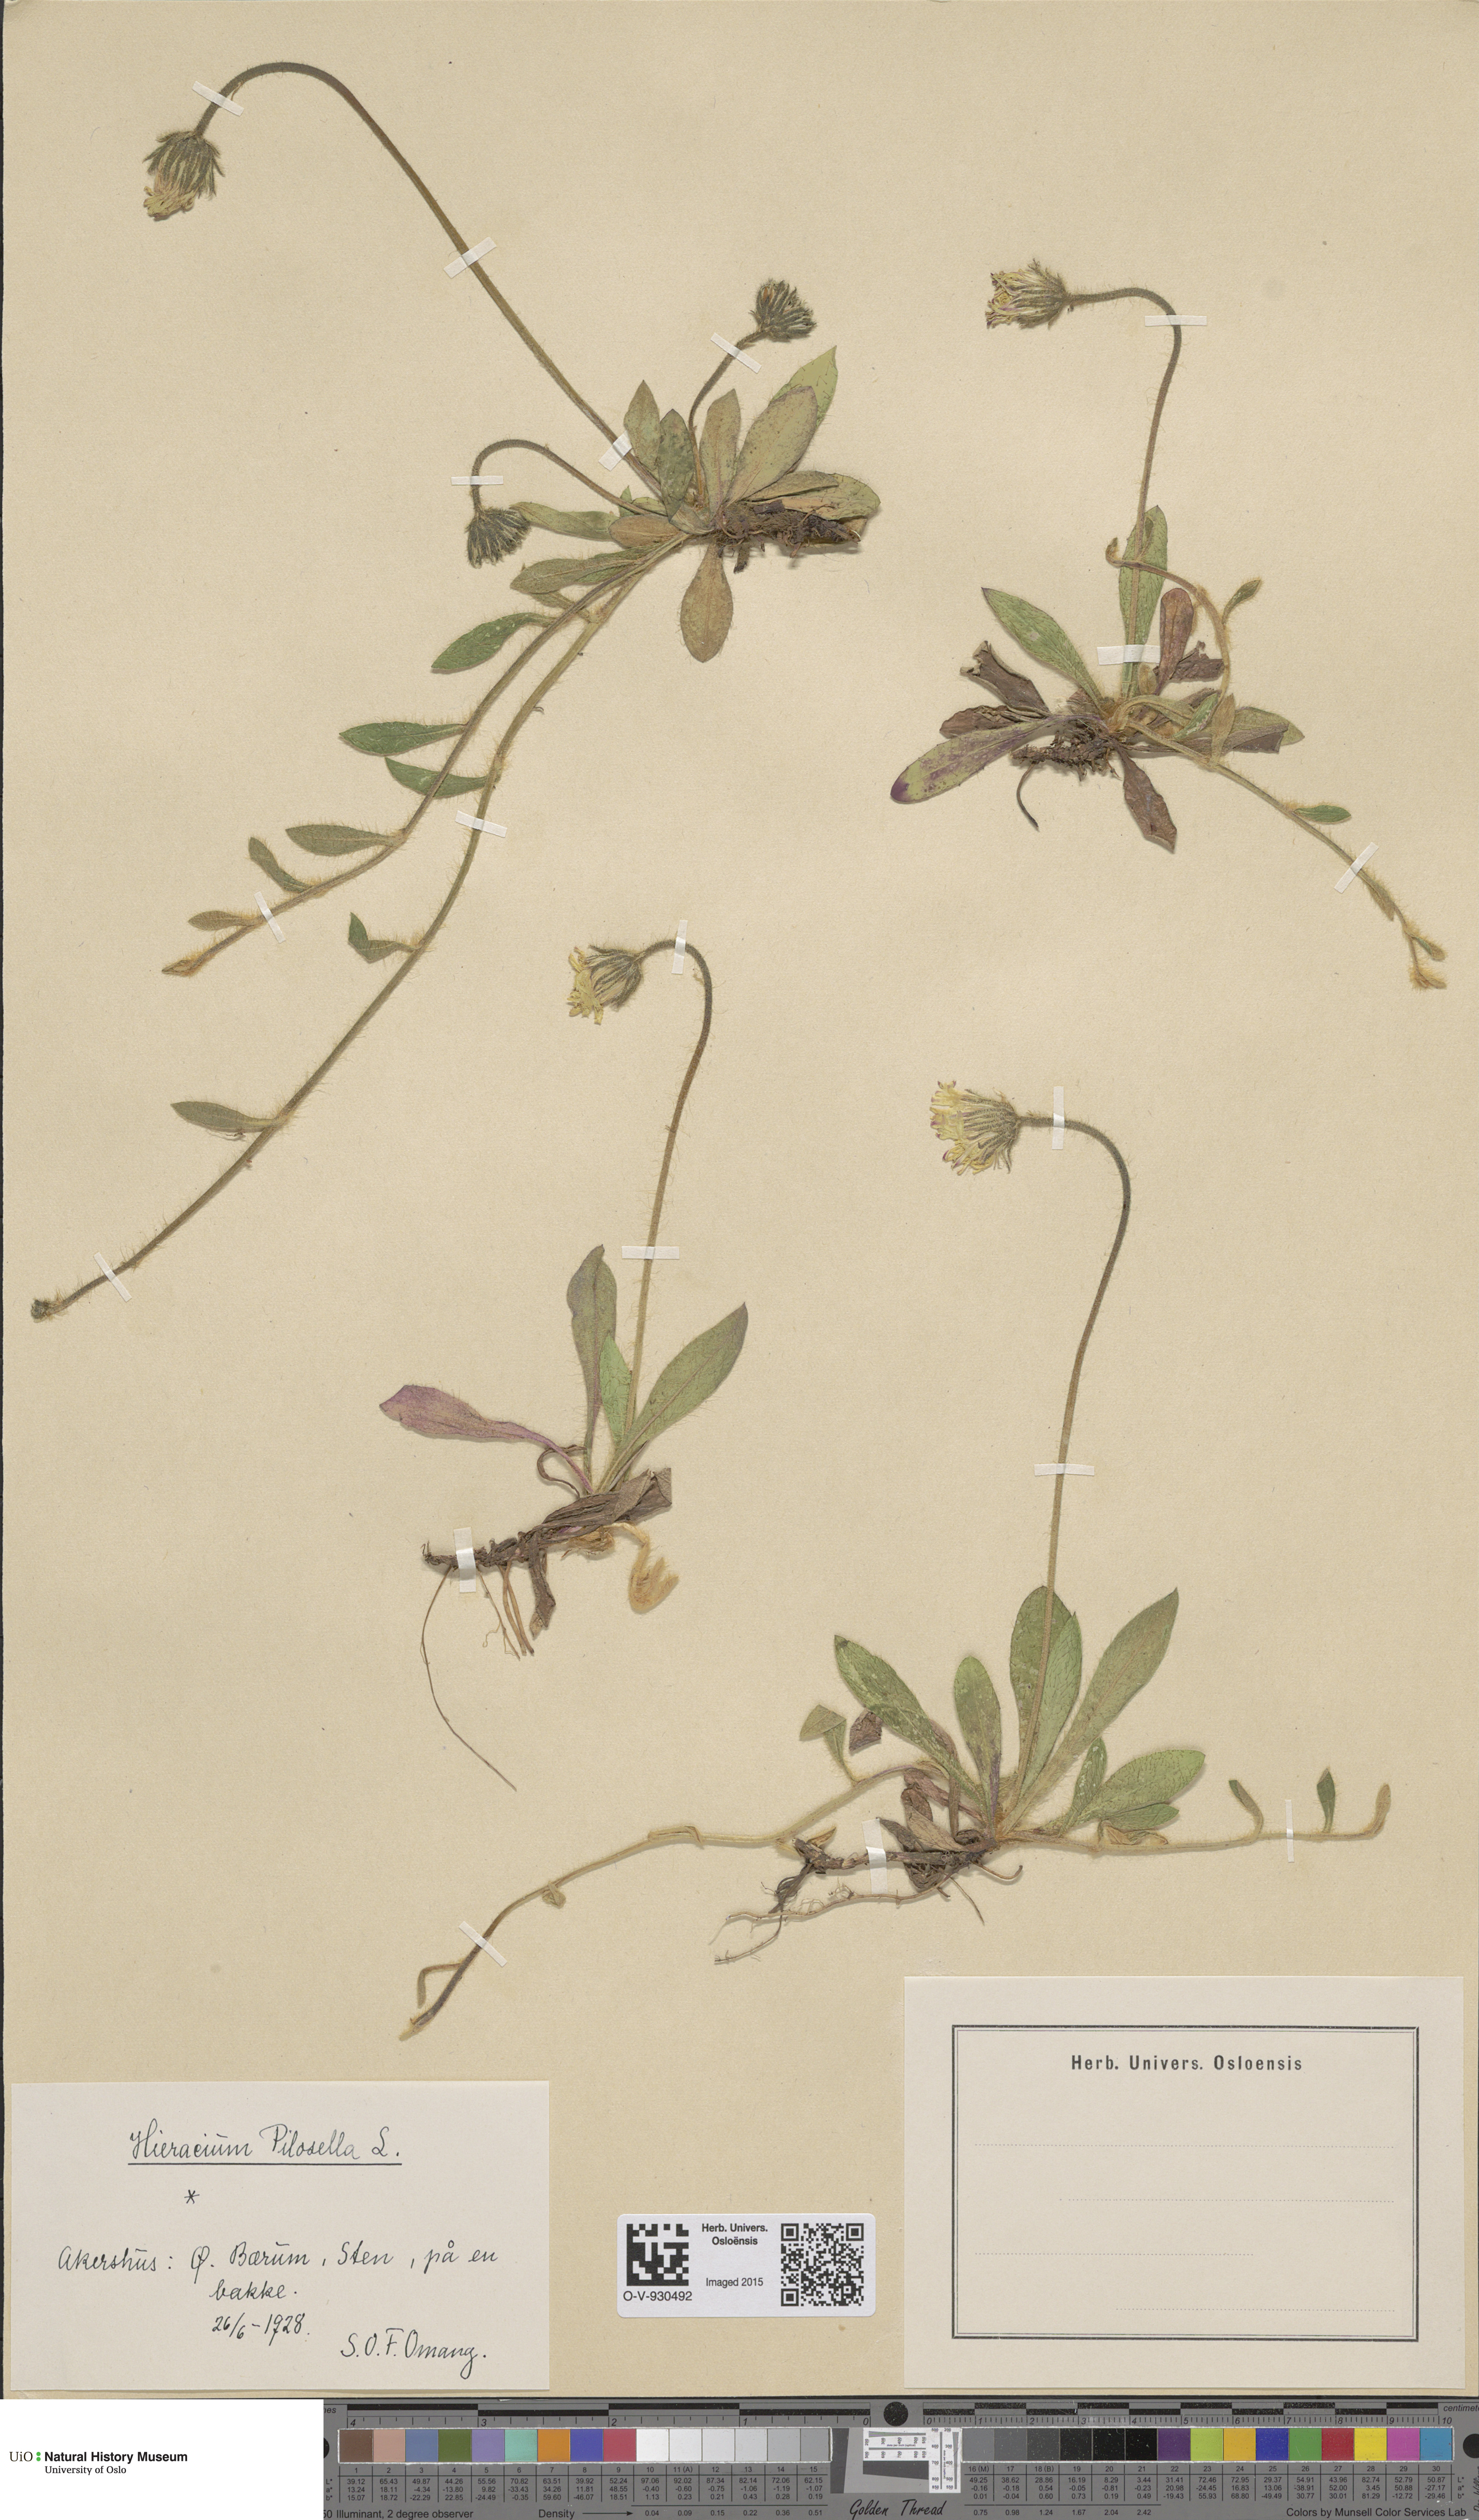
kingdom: Plantae
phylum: Tracheophyta
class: Magnoliopsida
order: Asterales
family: Asteraceae
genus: Pilosella
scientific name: Pilosella officinarum
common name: Mouse-ear hawkweed
